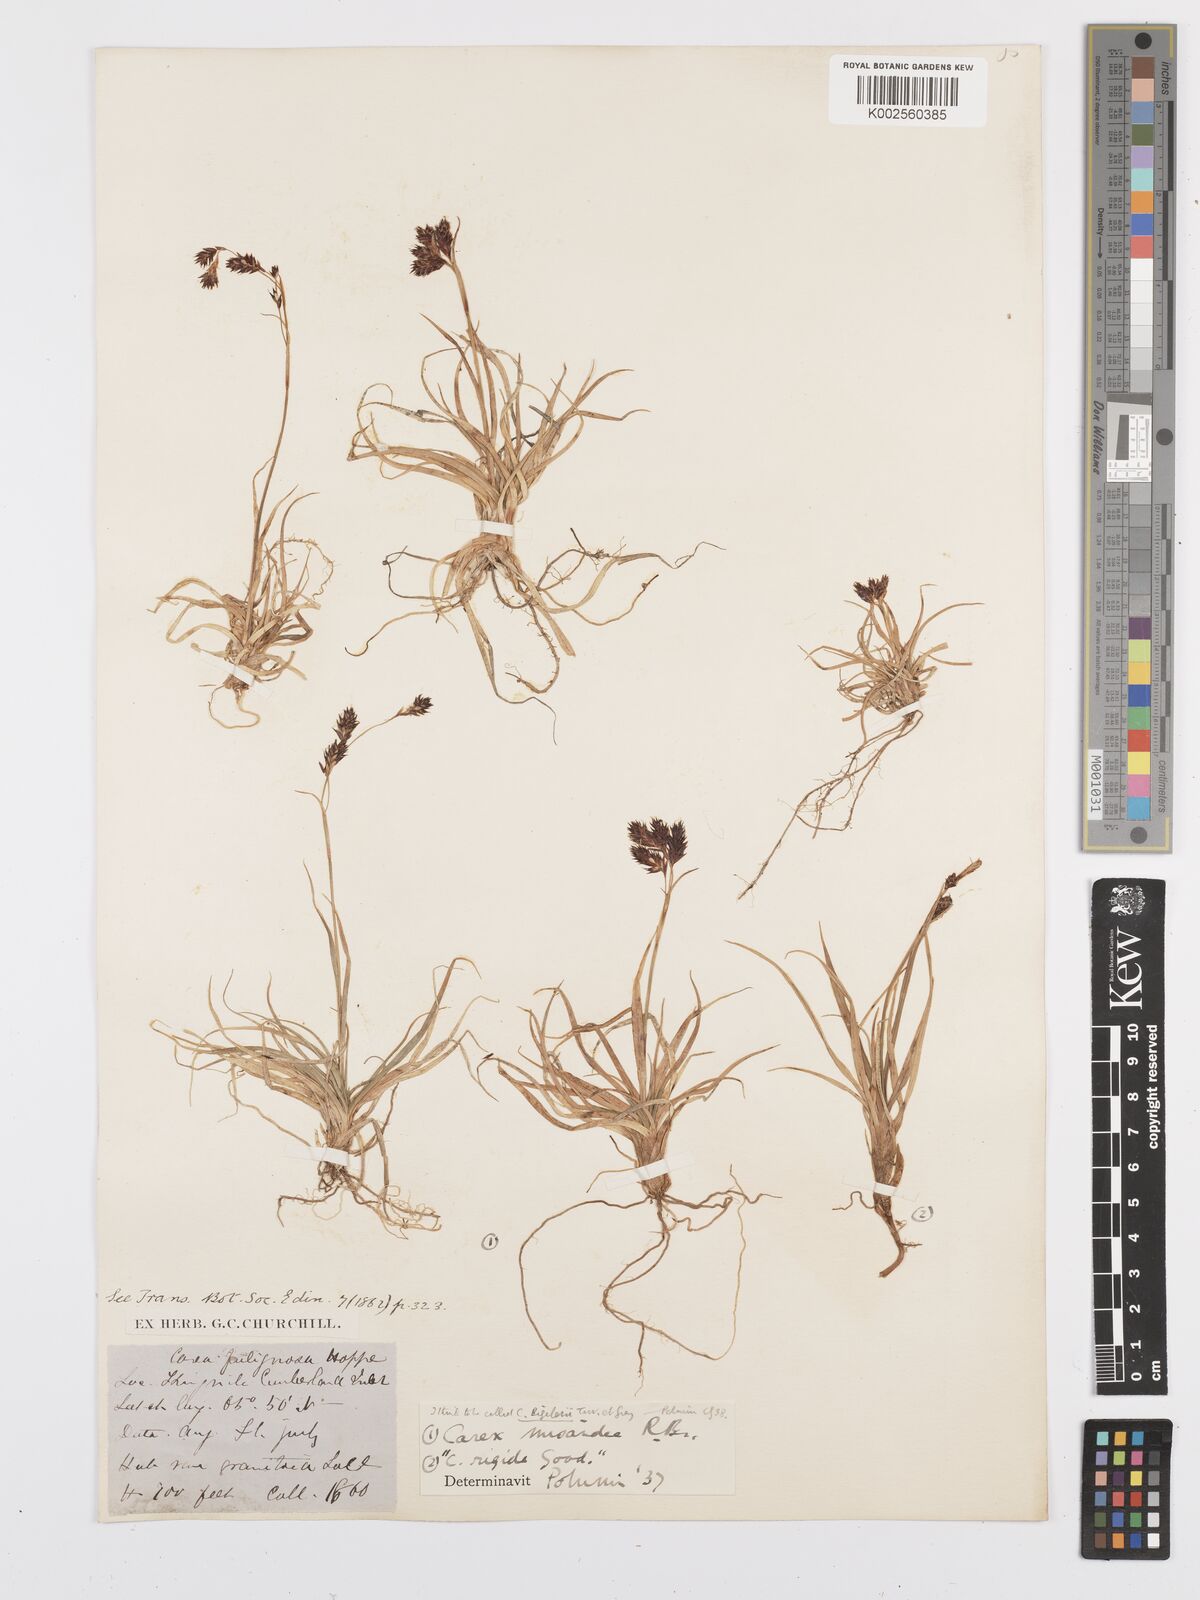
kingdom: Plantae
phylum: Tracheophyta
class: Liliopsida
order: Poales
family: Cyperaceae
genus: Carex
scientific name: Carex fuliginosa
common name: Few-flowered sedge
